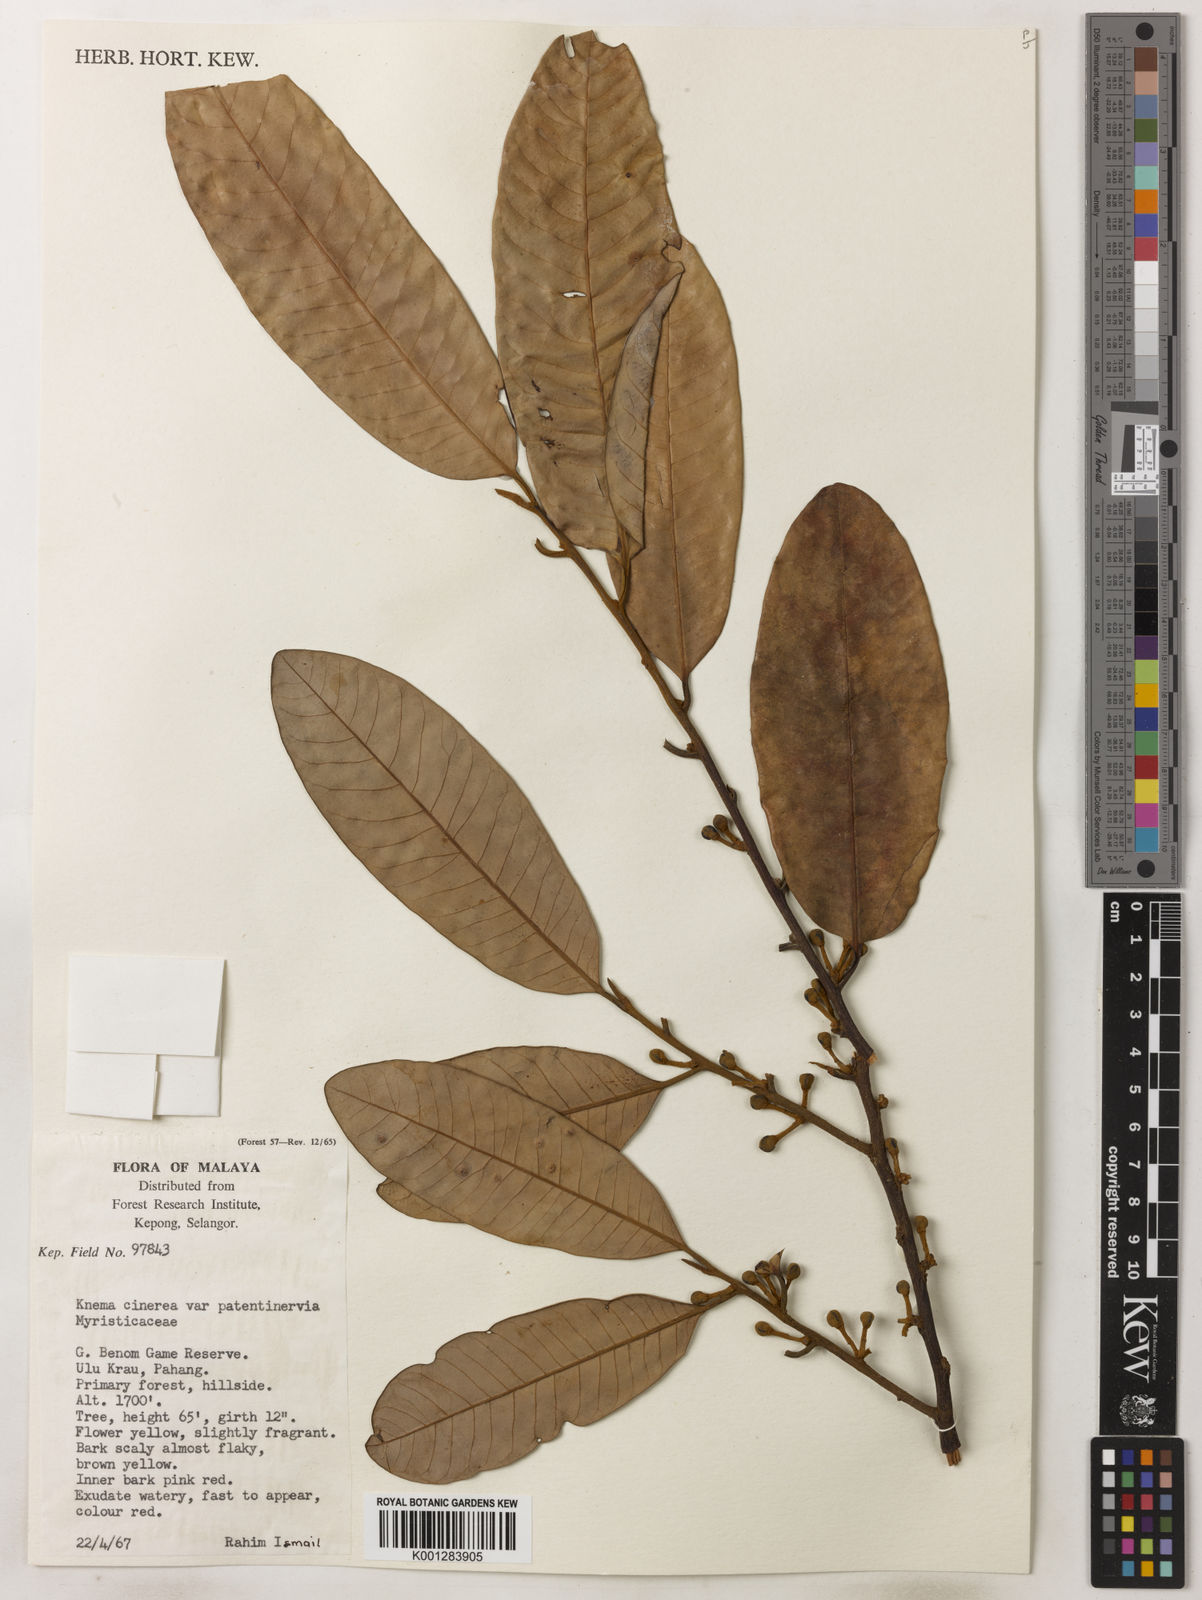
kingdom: Plantae
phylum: Tracheophyta
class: Magnoliopsida
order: Magnoliales
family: Myristicaceae
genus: Knema
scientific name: Knema
